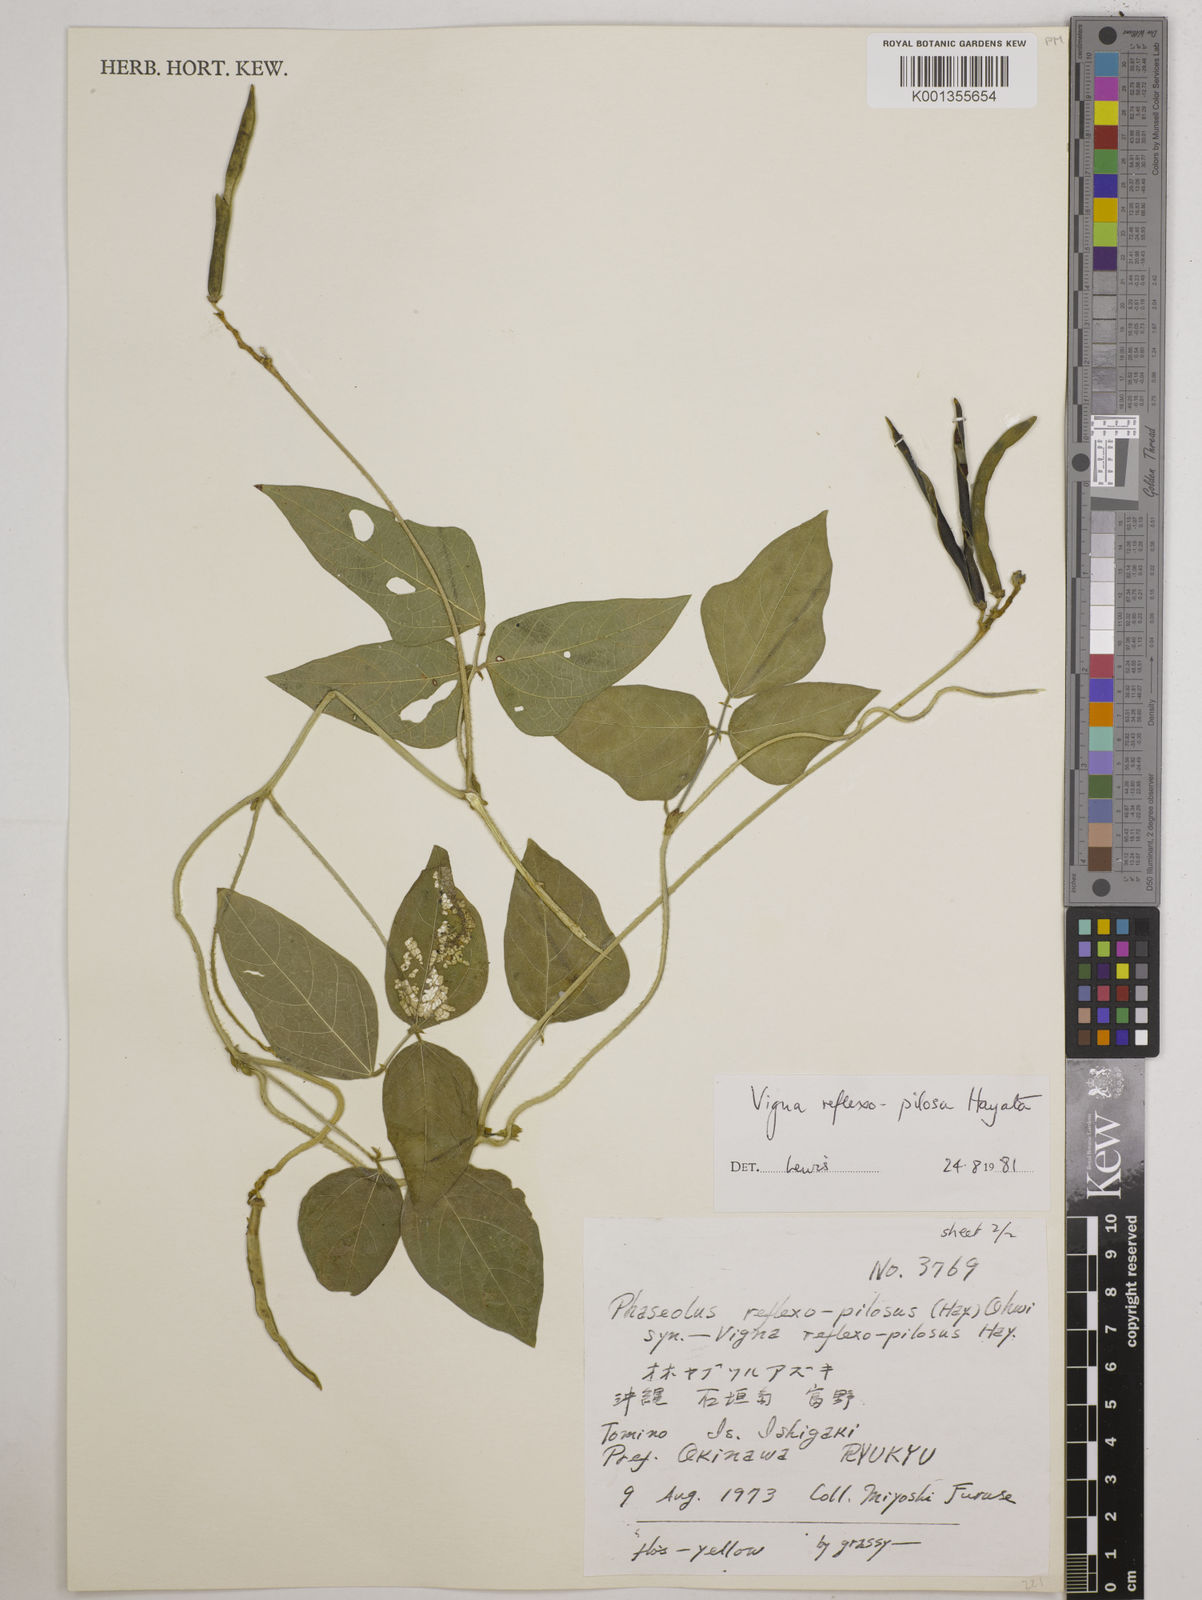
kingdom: Plantae
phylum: Tracheophyta
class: Magnoliopsida
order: Fabales
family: Fabaceae
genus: Vigna
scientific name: Vigna reflexopilosa
